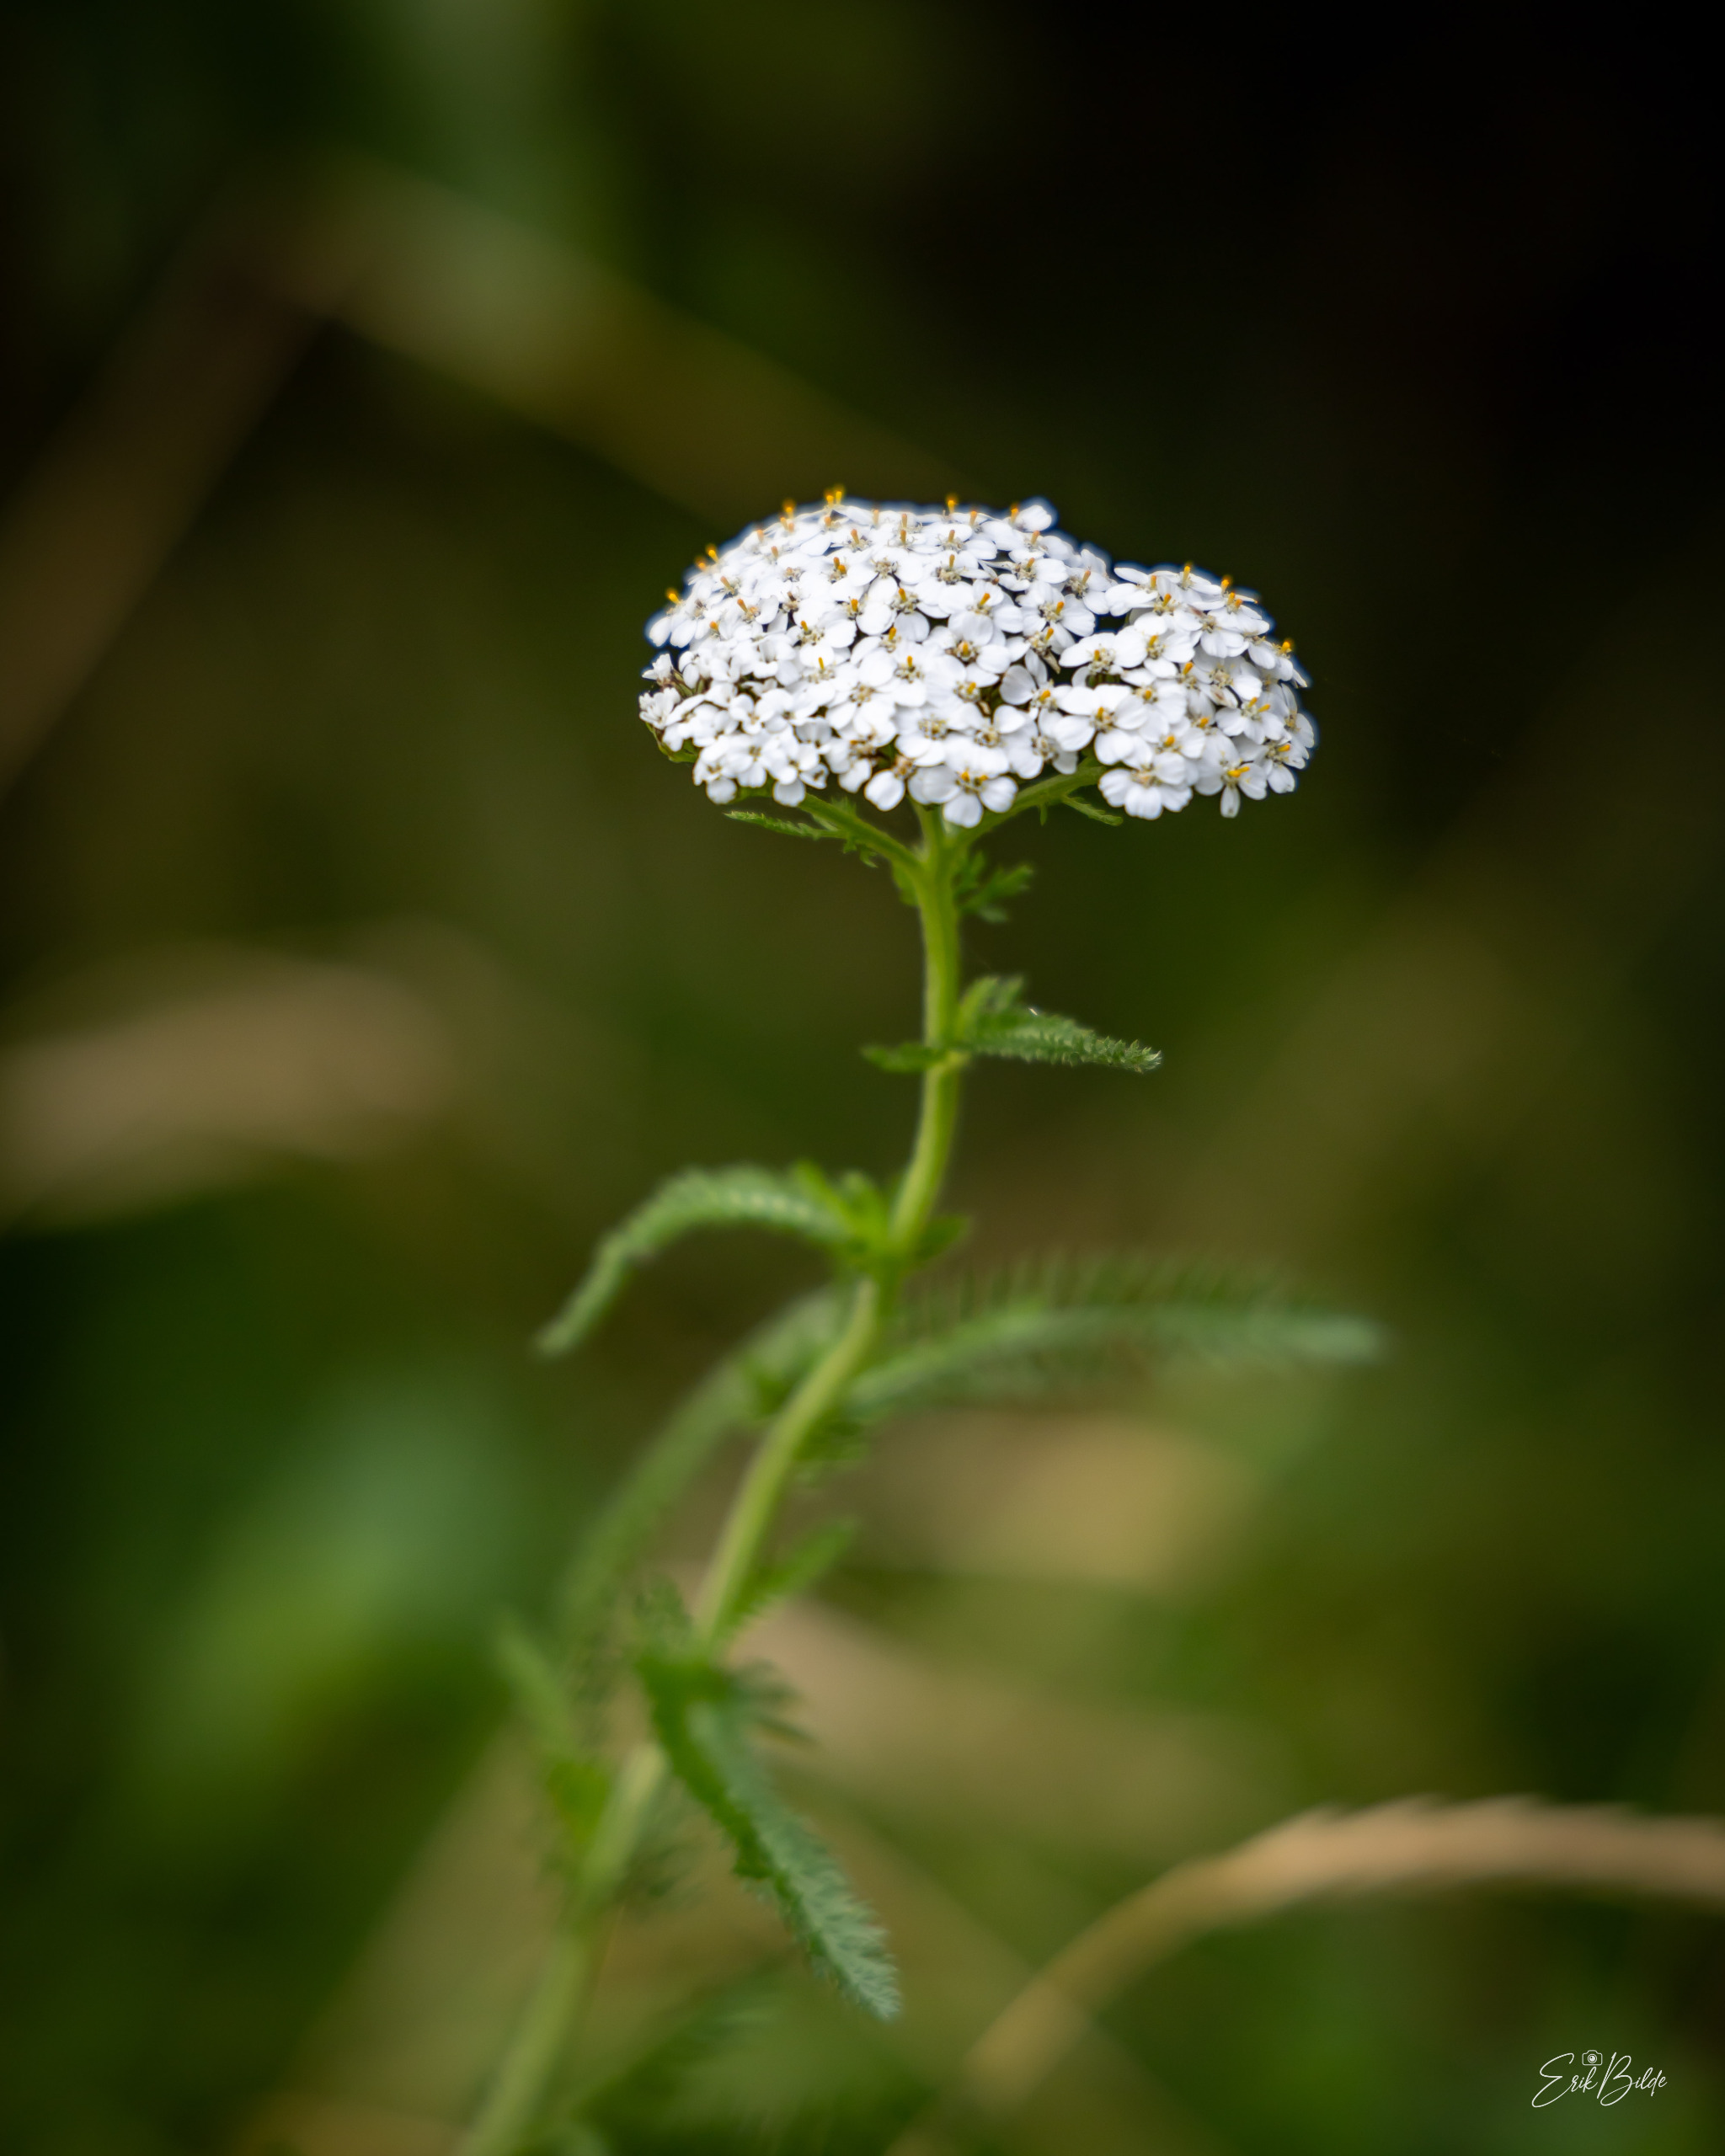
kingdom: Plantae
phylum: Tracheophyta
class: Magnoliopsida
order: Asterales
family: Asteraceae
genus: Achillea
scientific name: Achillea millefolium
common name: Almindelig røllike
